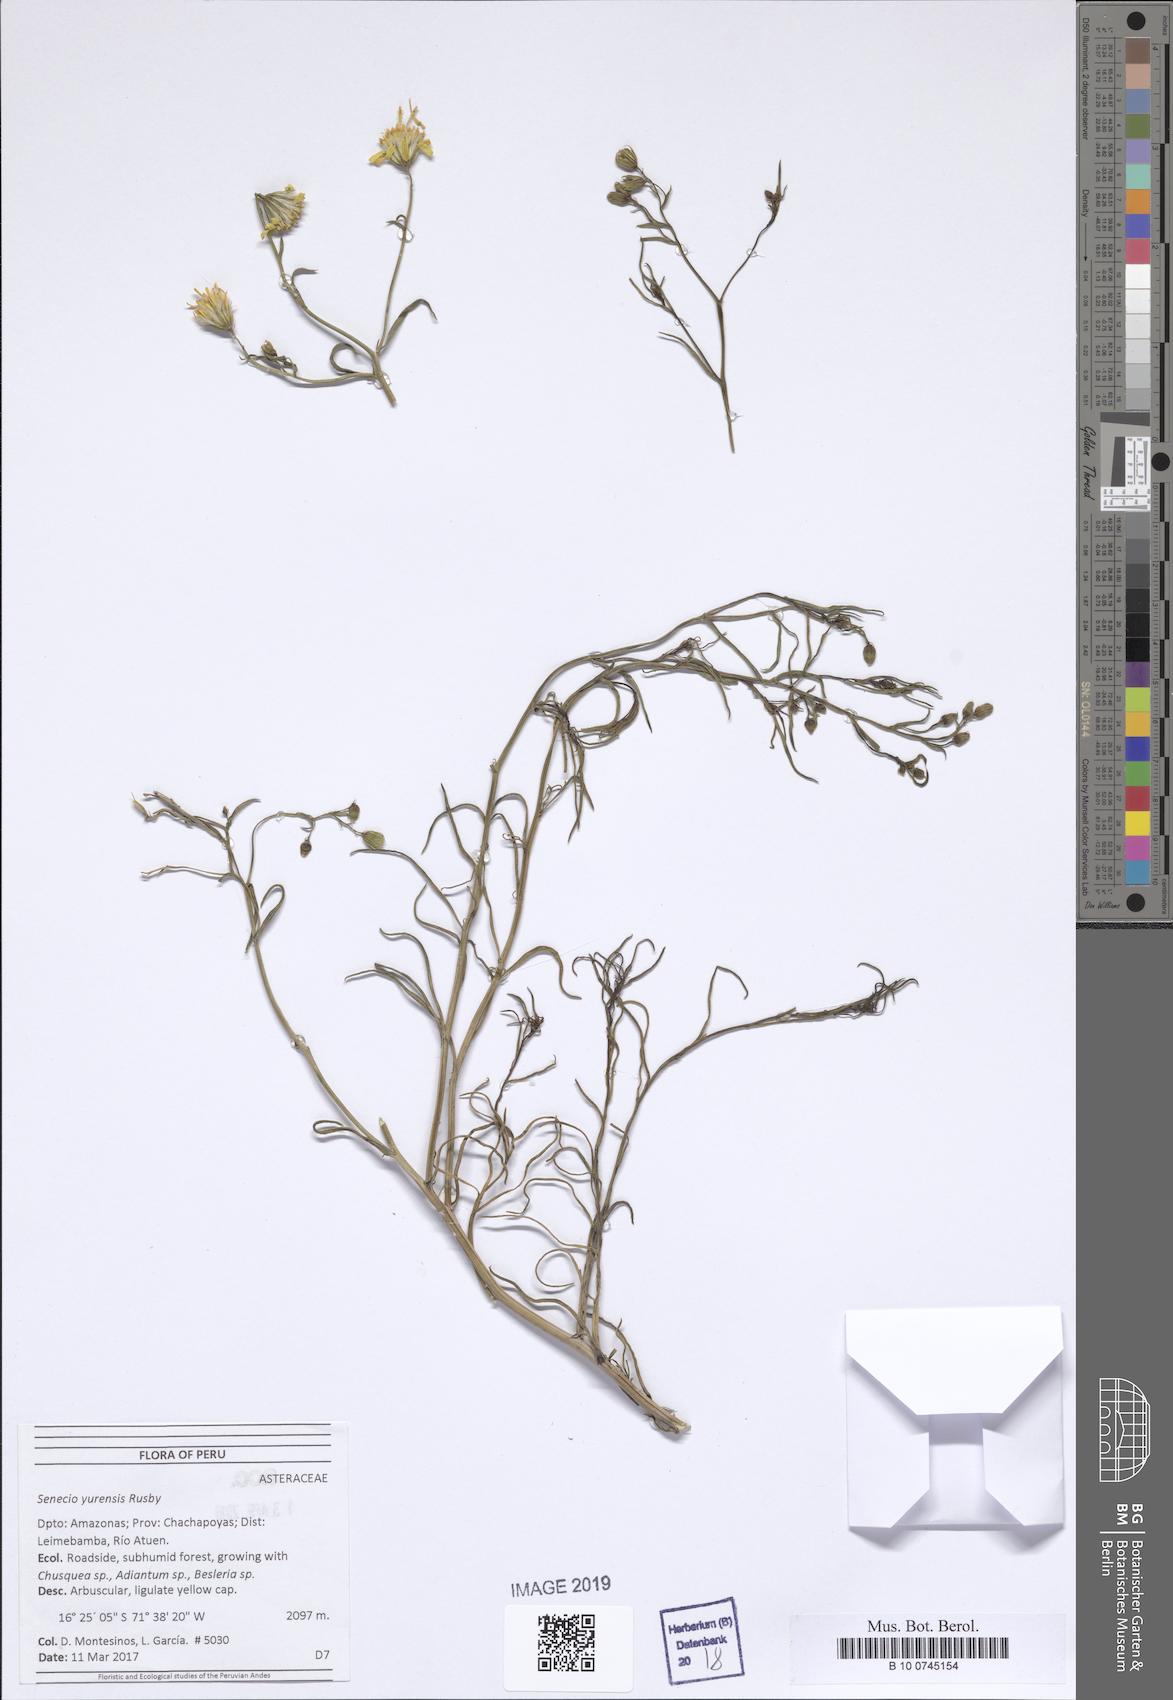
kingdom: Plantae
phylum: Tracheophyta
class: Magnoliopsida
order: Asterales
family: Asteraceae
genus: Senecio
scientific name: Senecio yurensis
